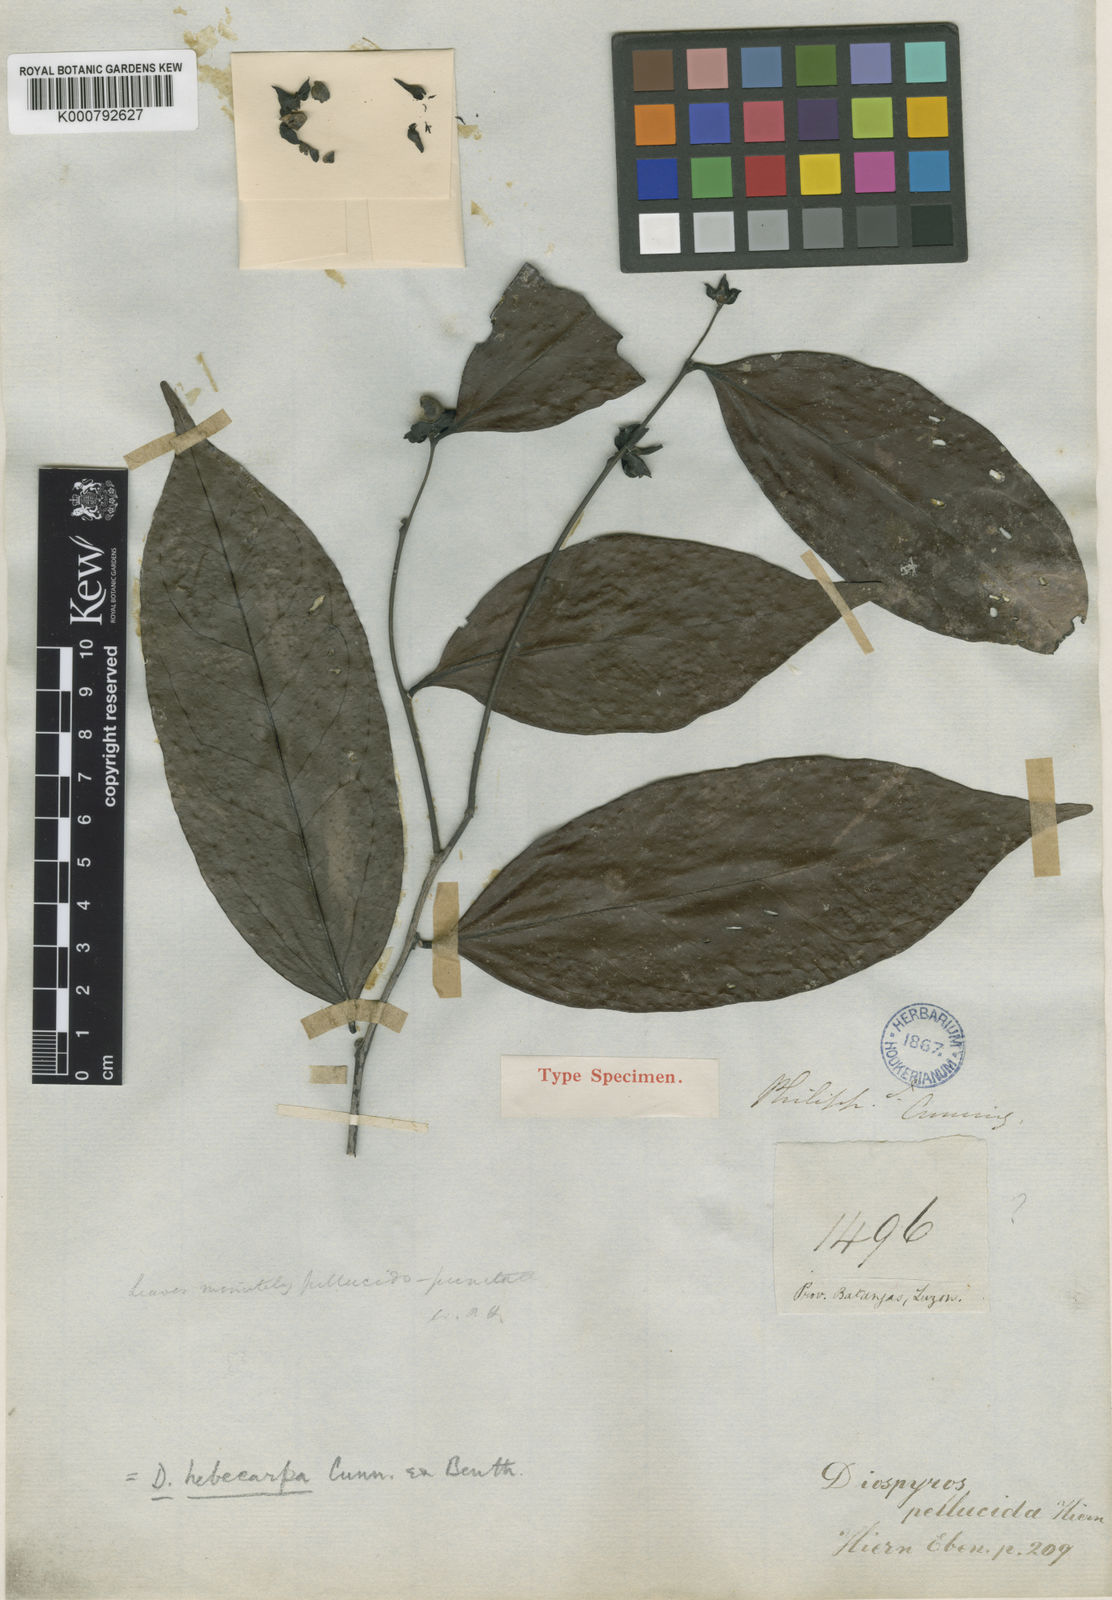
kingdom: Plantae
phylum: Tracheophyta
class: Magnoliopsida
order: Ericales
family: Ebenaceae
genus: Diospyros
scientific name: Diospyros hebecarpa
